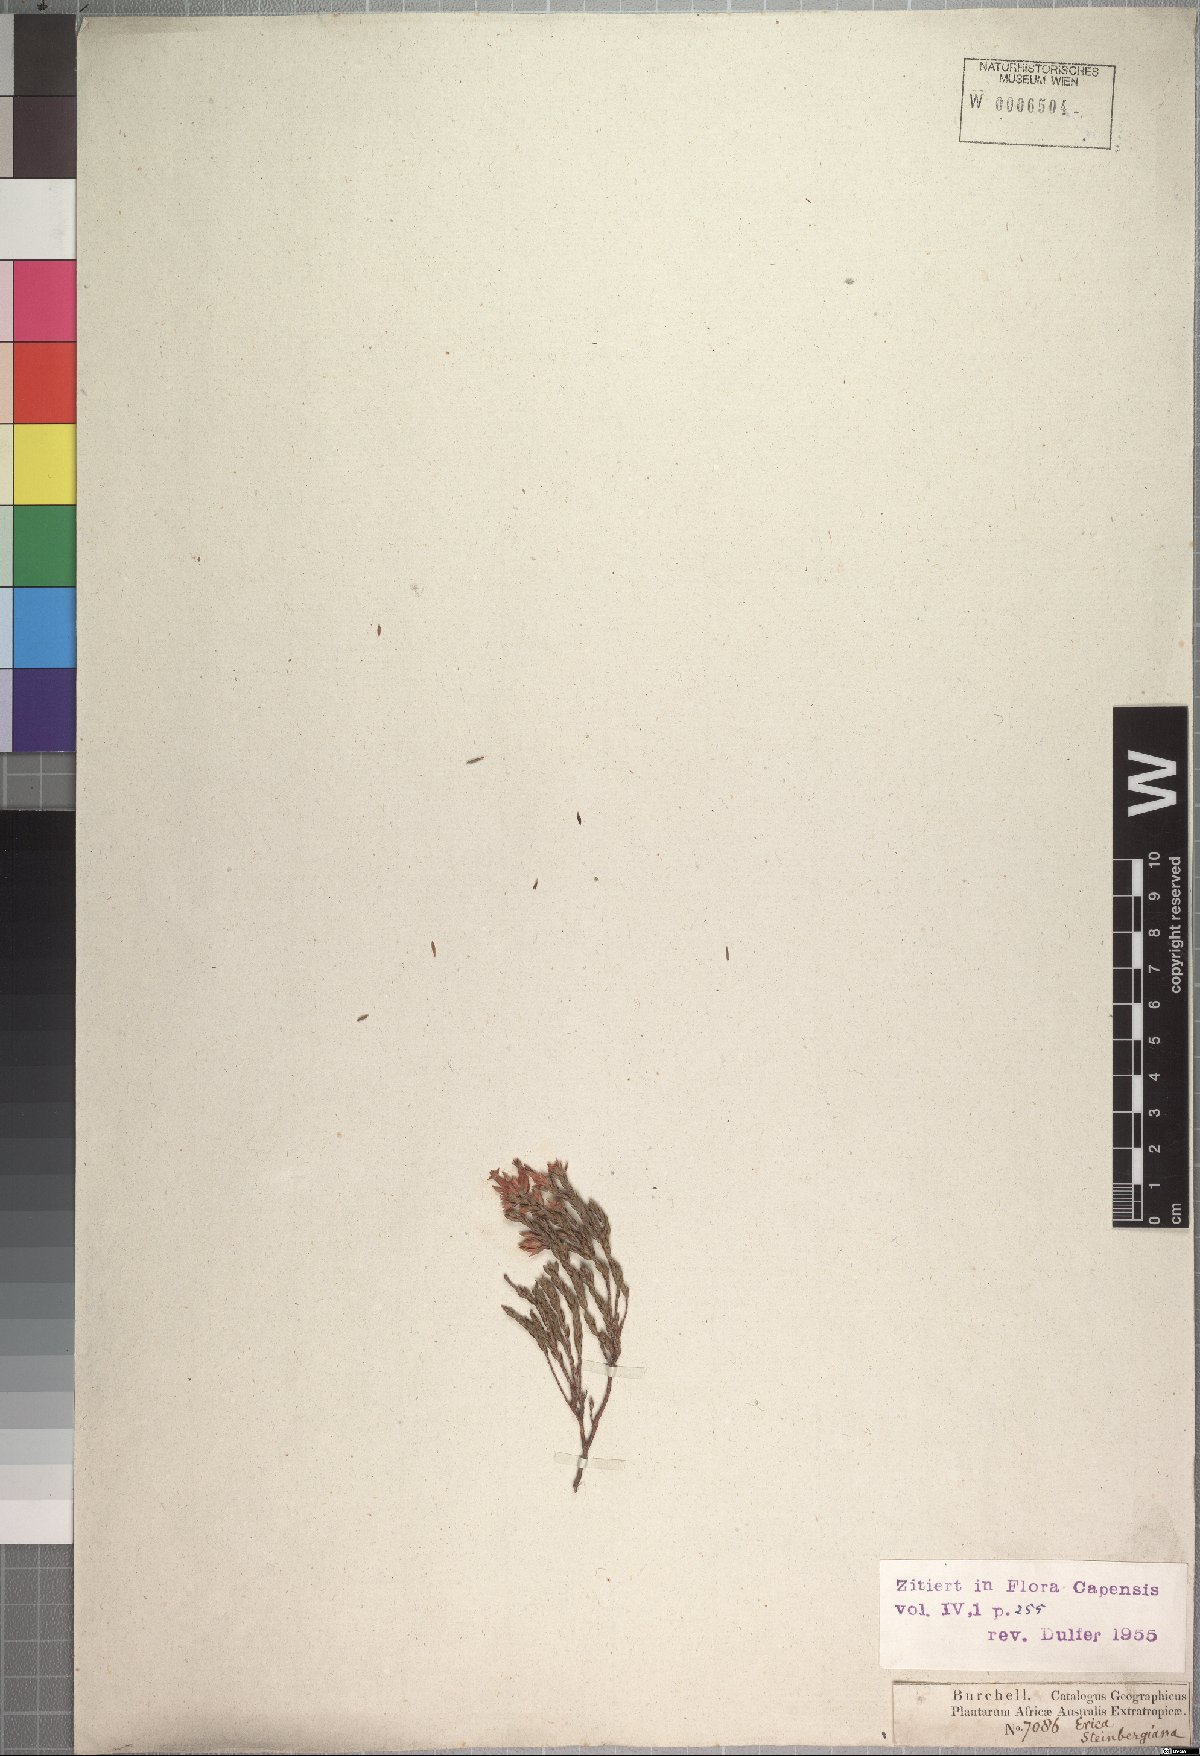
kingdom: Plantae
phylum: Tracheophyta
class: Magnoliopsida
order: Ericales
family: Ericaceae
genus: Erica
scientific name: Erica steinbergiana
